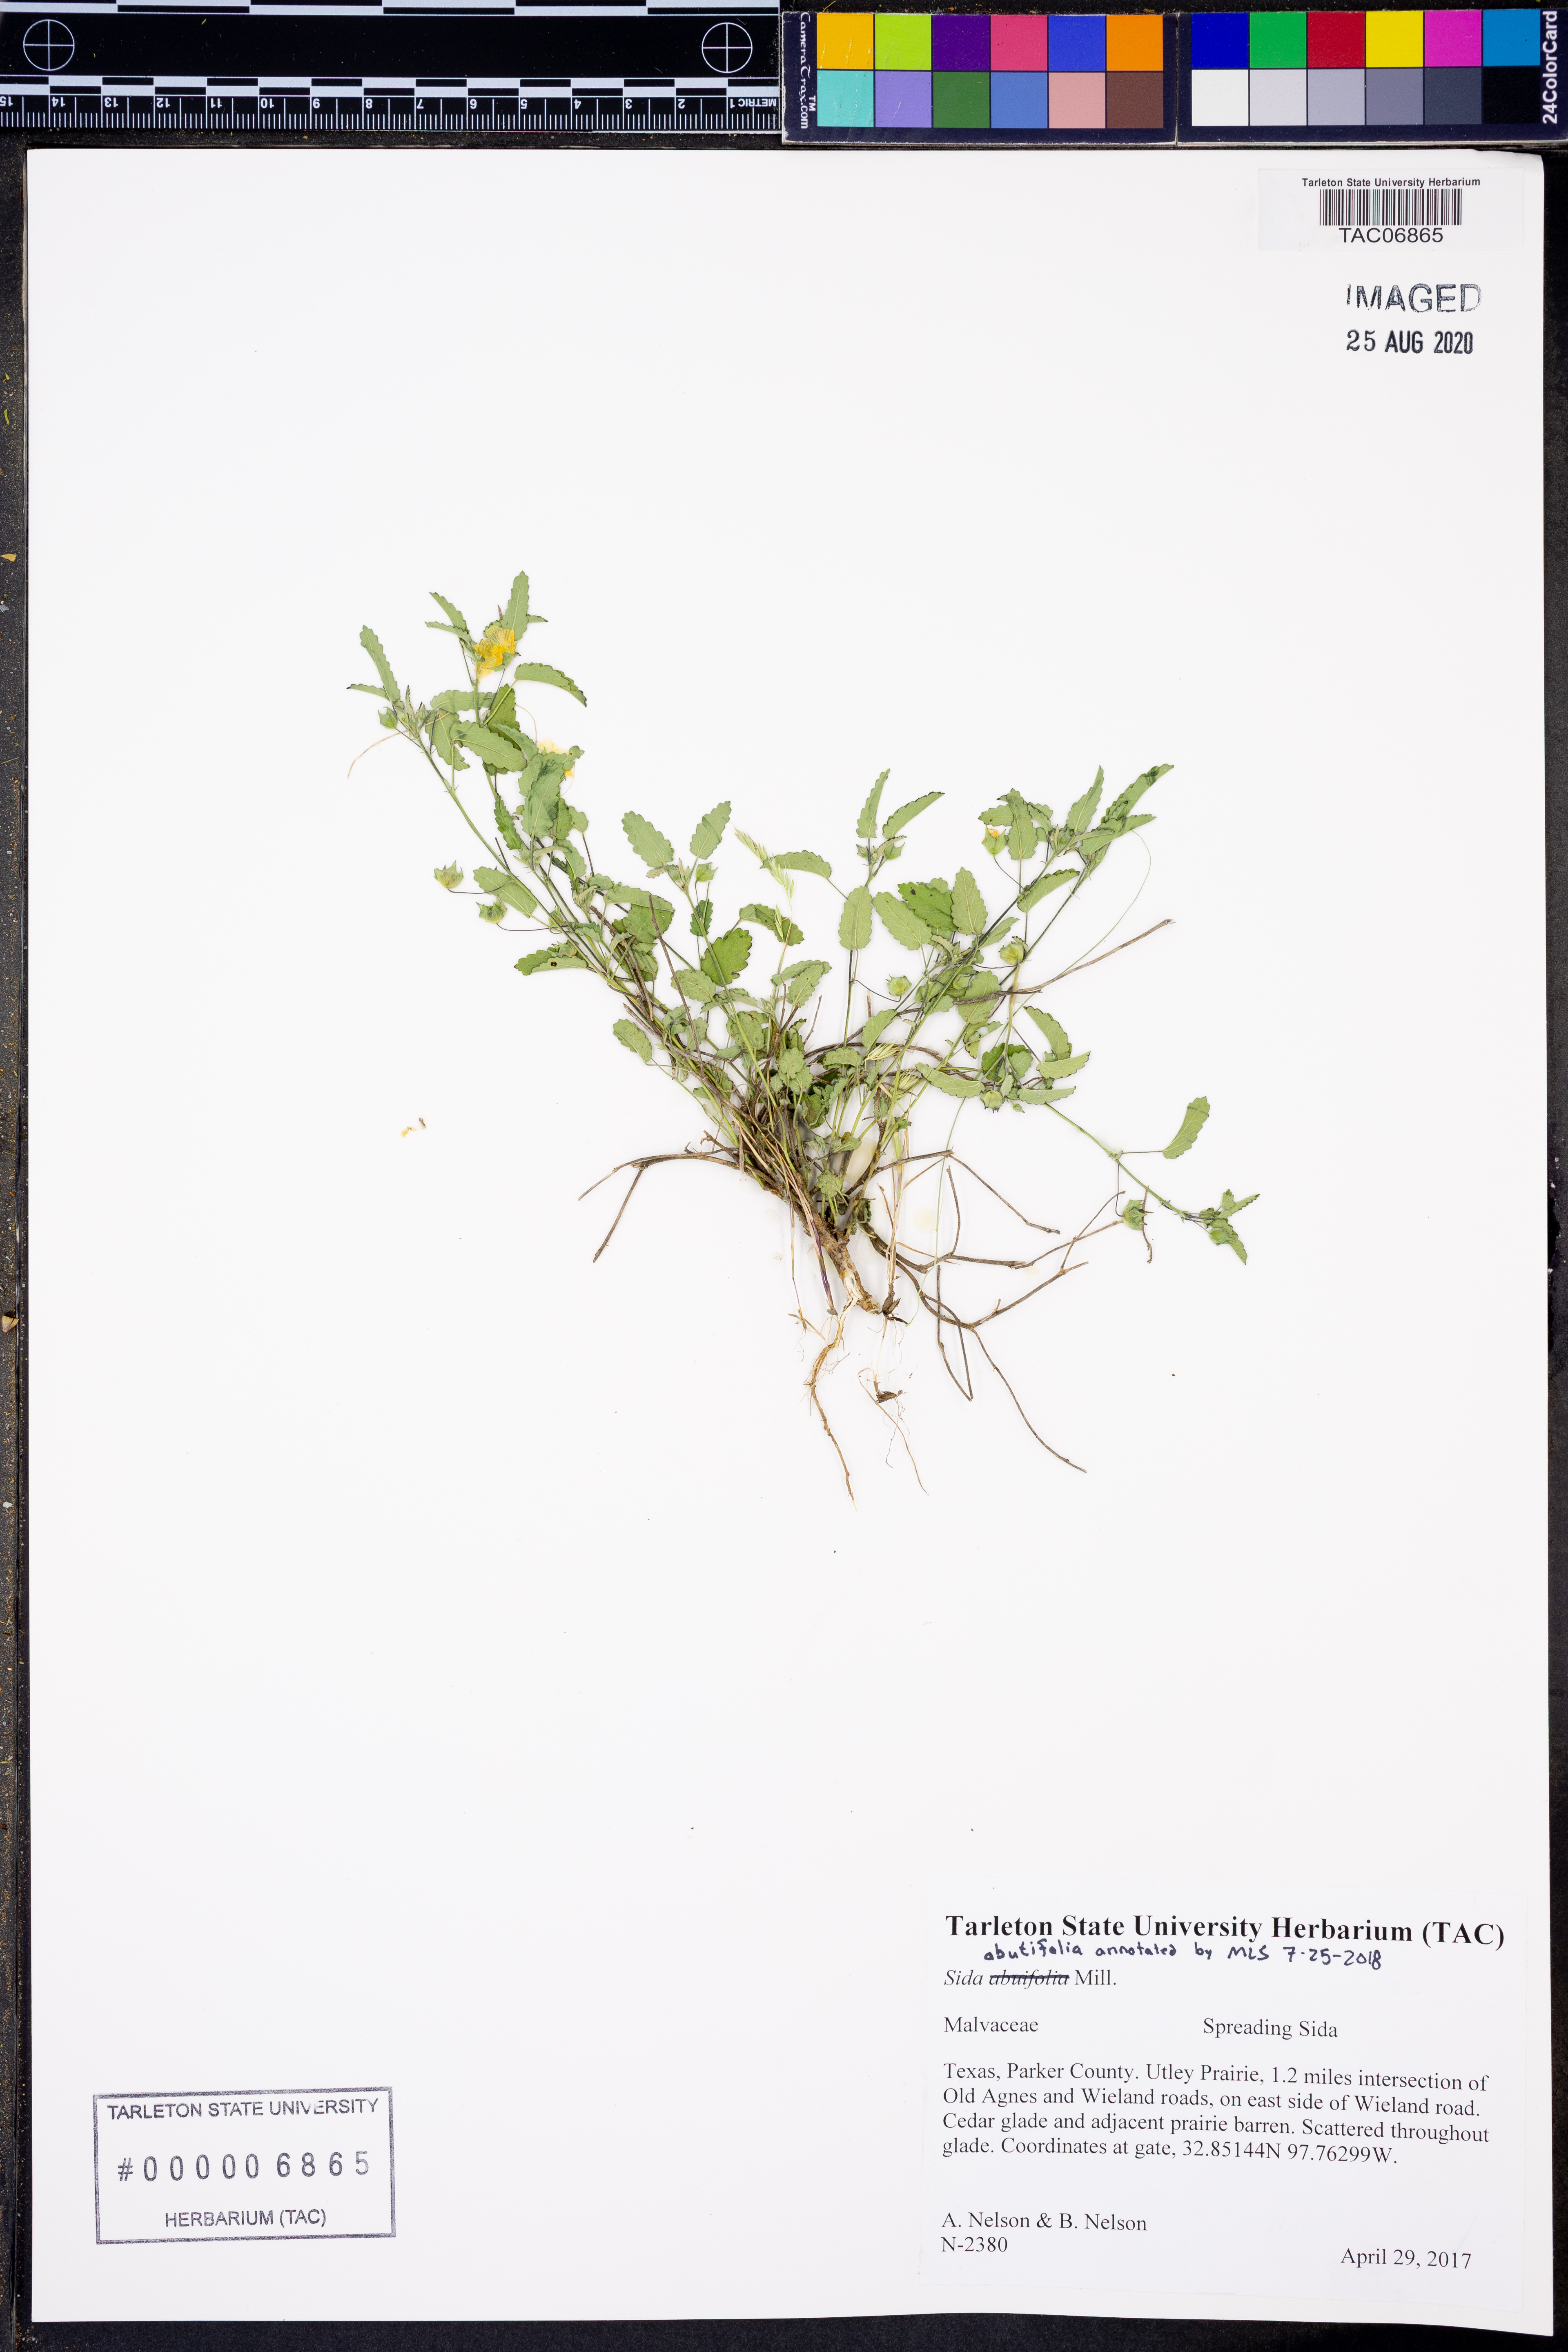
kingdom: Plantae
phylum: Tracheophyta
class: Magnoliopsida
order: Malvales
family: Malvaceae
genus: Sida
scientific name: Sida abutifolia
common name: Spreading fantails
